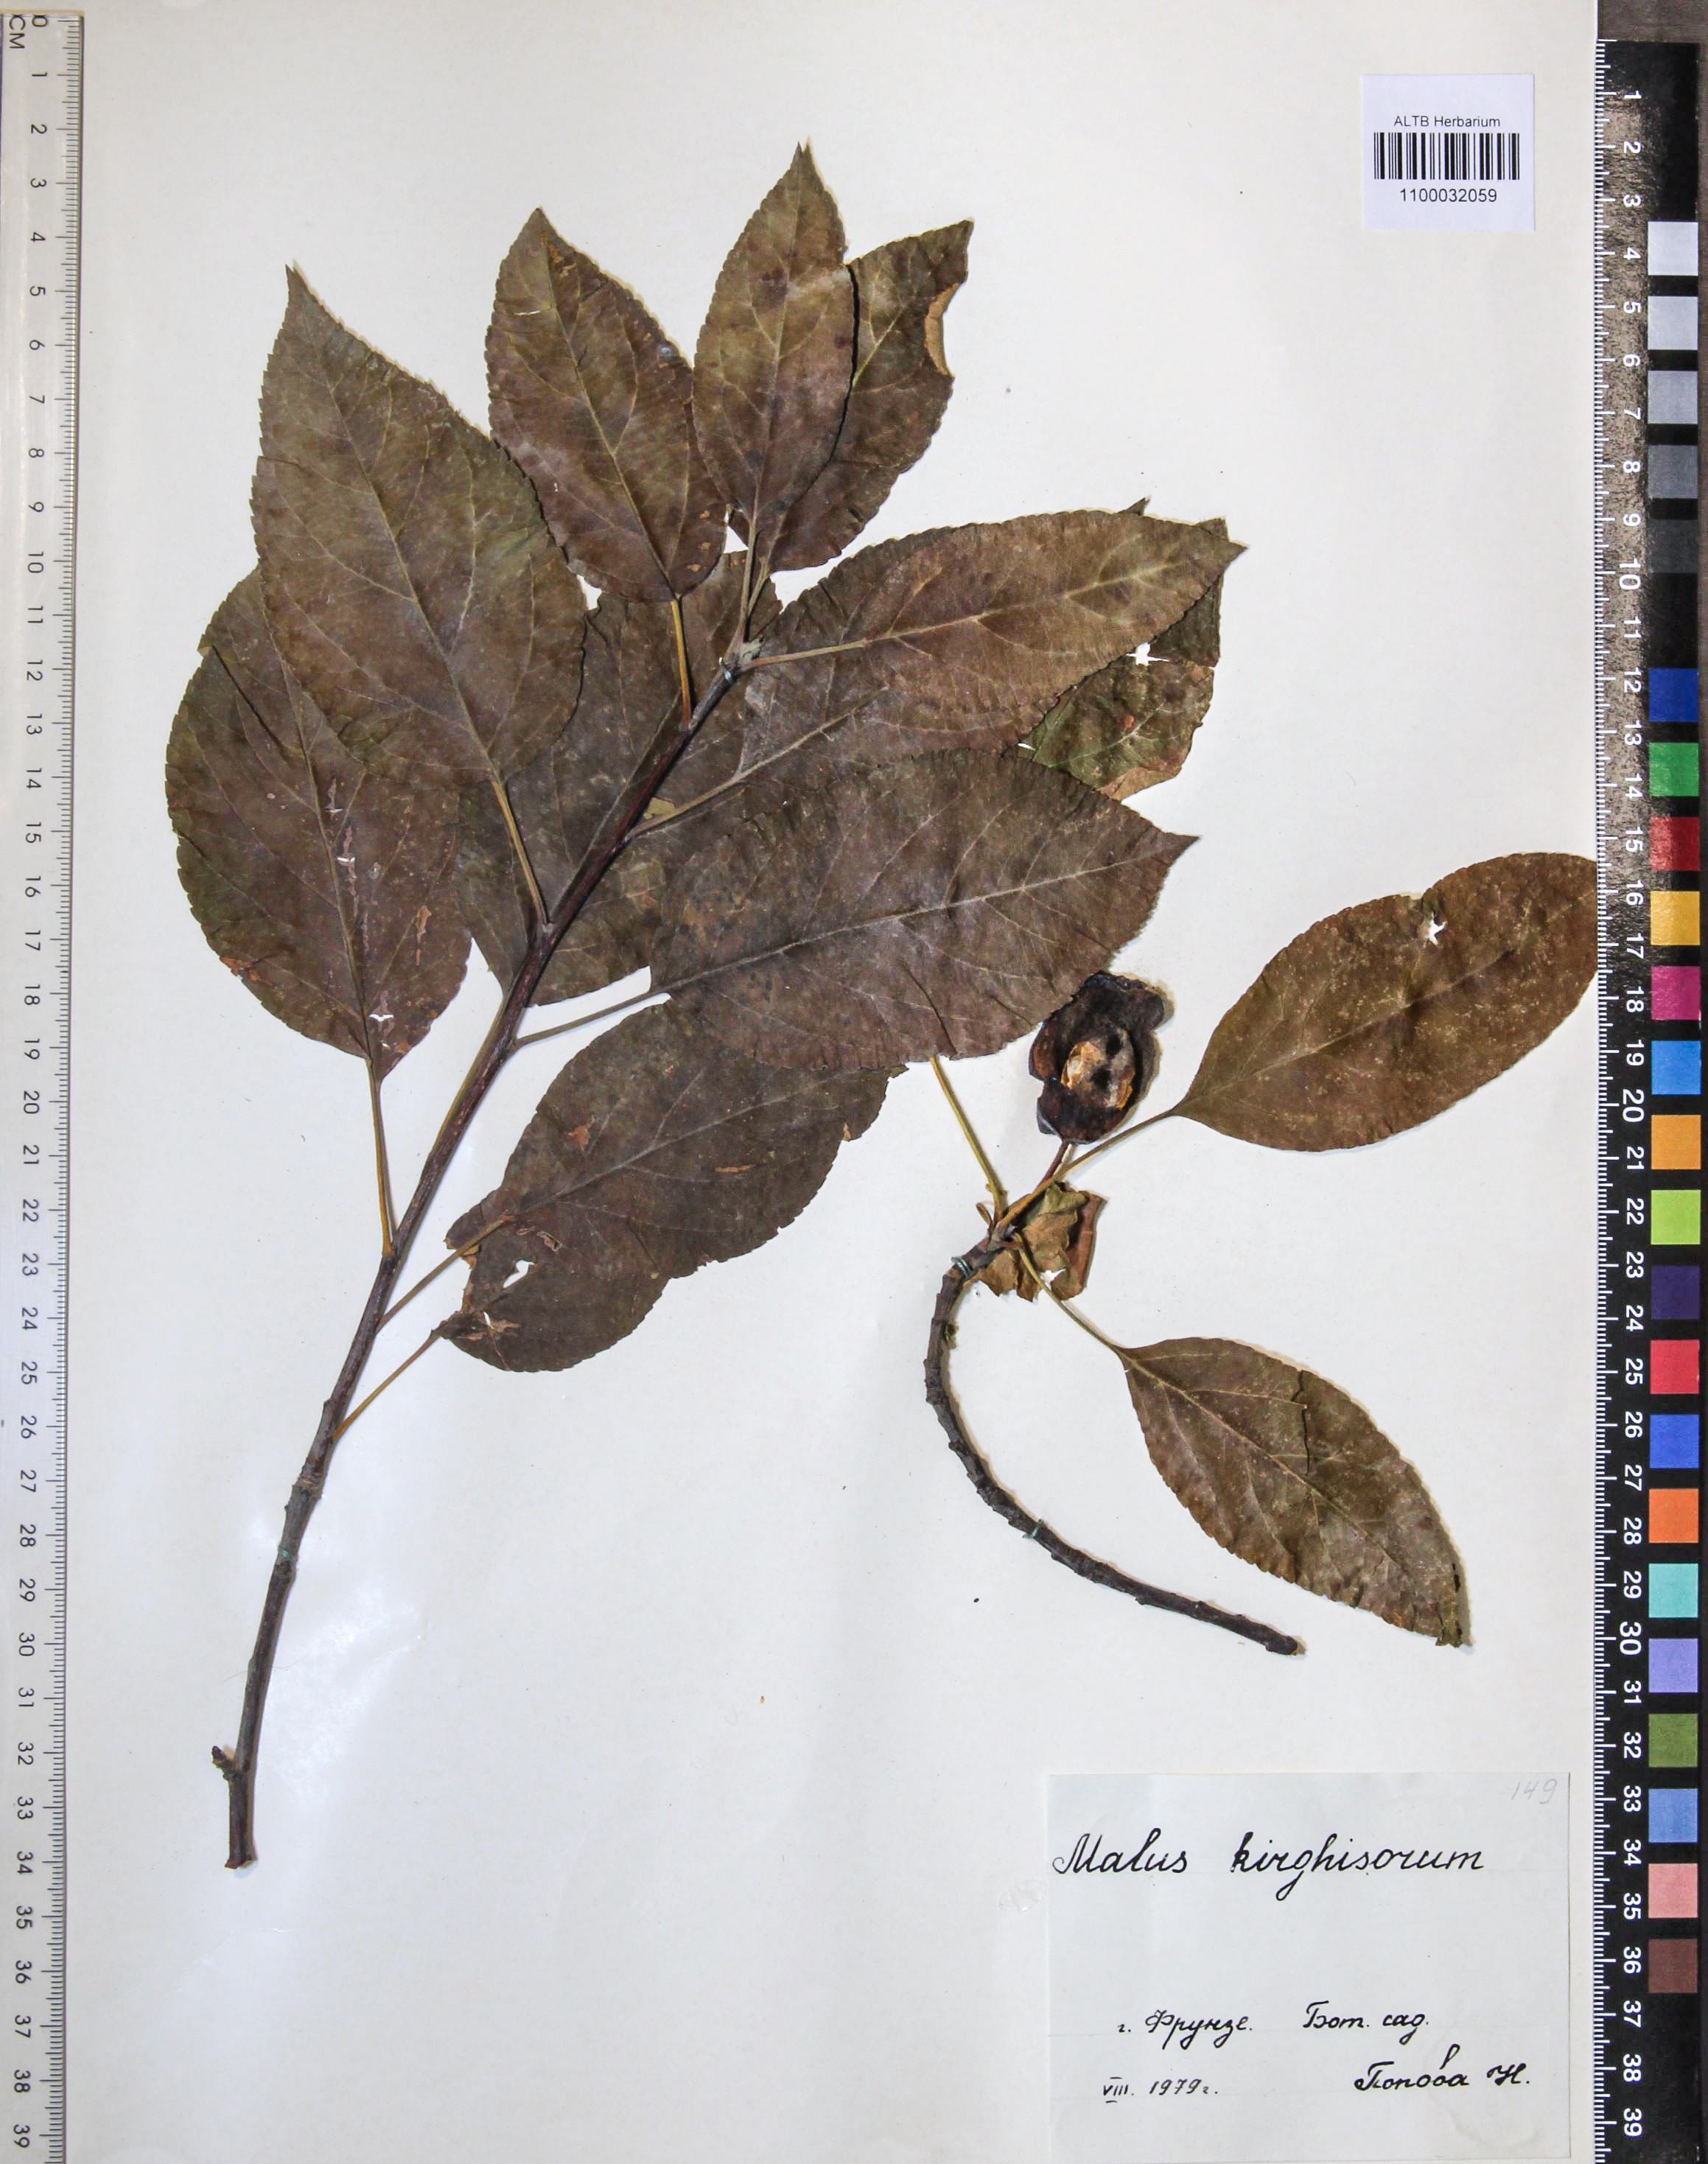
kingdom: Plantae
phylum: Tracheophyta
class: Magnoliopsida
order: Rosales
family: Rosaceae
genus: Malus
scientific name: Malus domestica
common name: Apple
